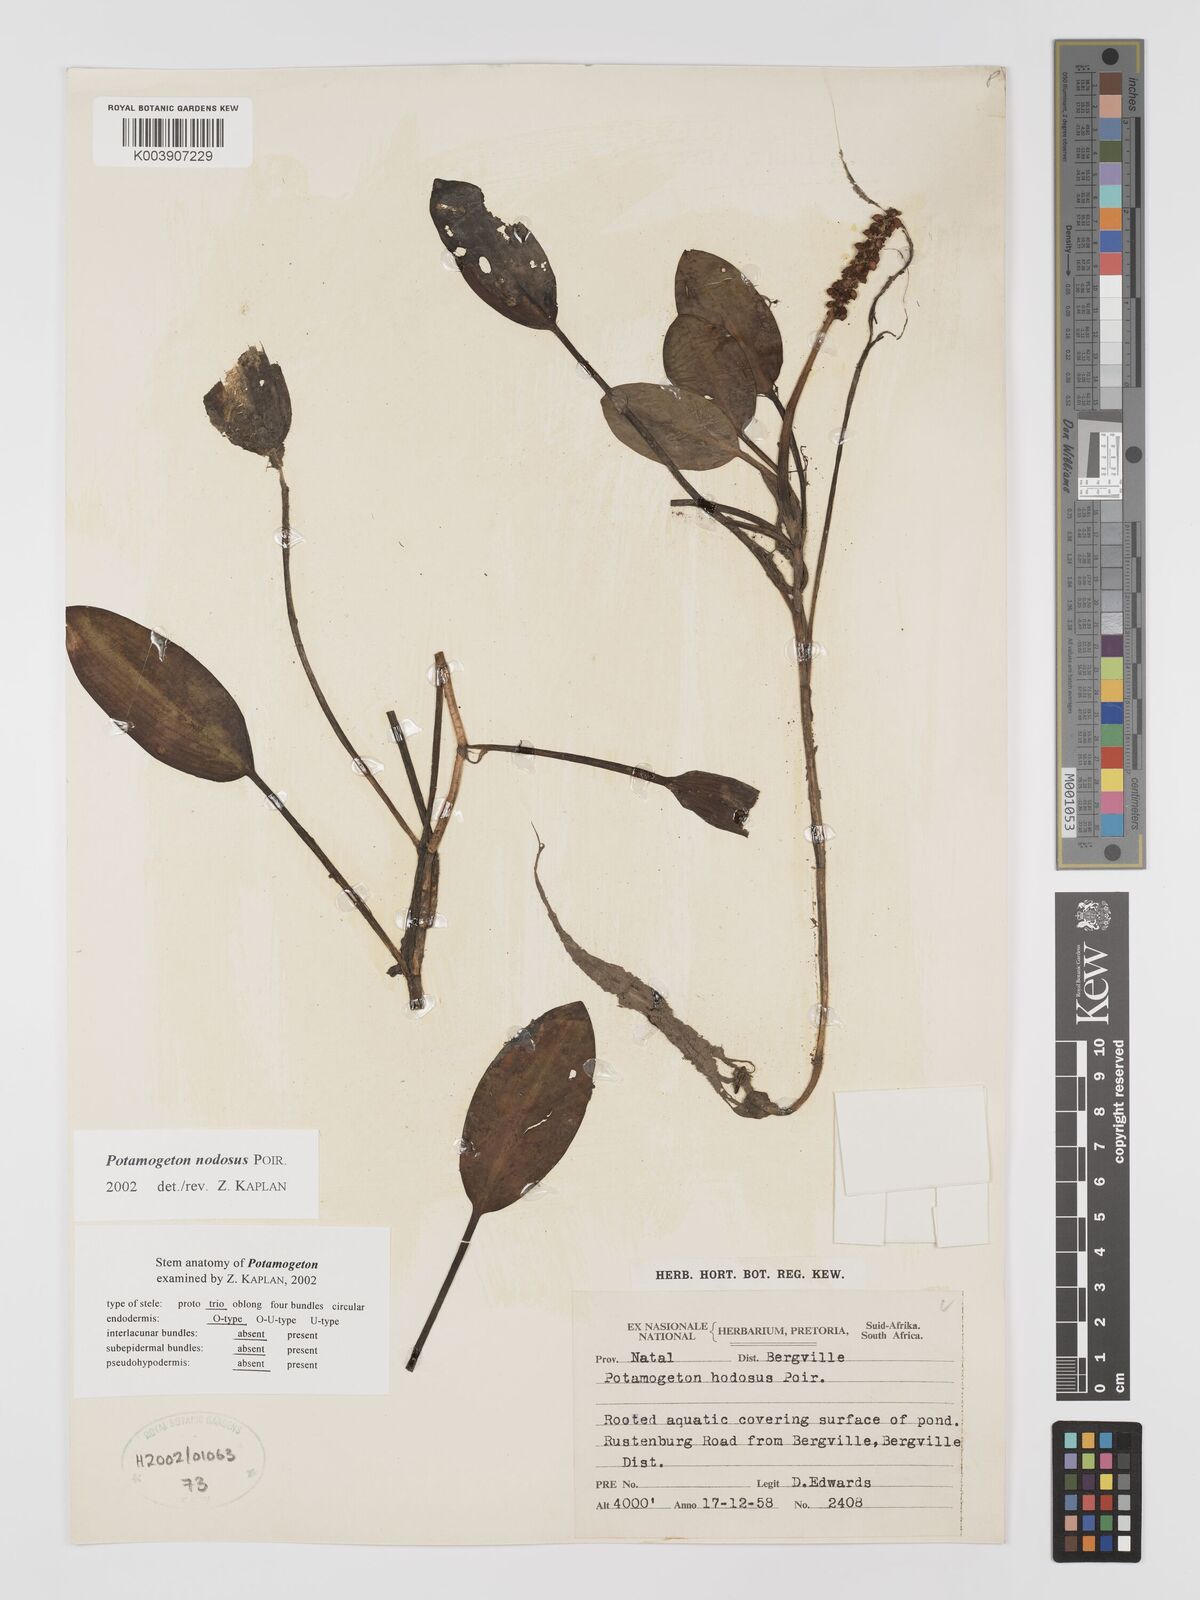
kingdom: Plantae
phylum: Tracheophyta
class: Liliopsida
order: Alismatales
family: Potamogetonaceae
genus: Potamogeton
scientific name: Potamogeton nodosus
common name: Loddon pondweed
